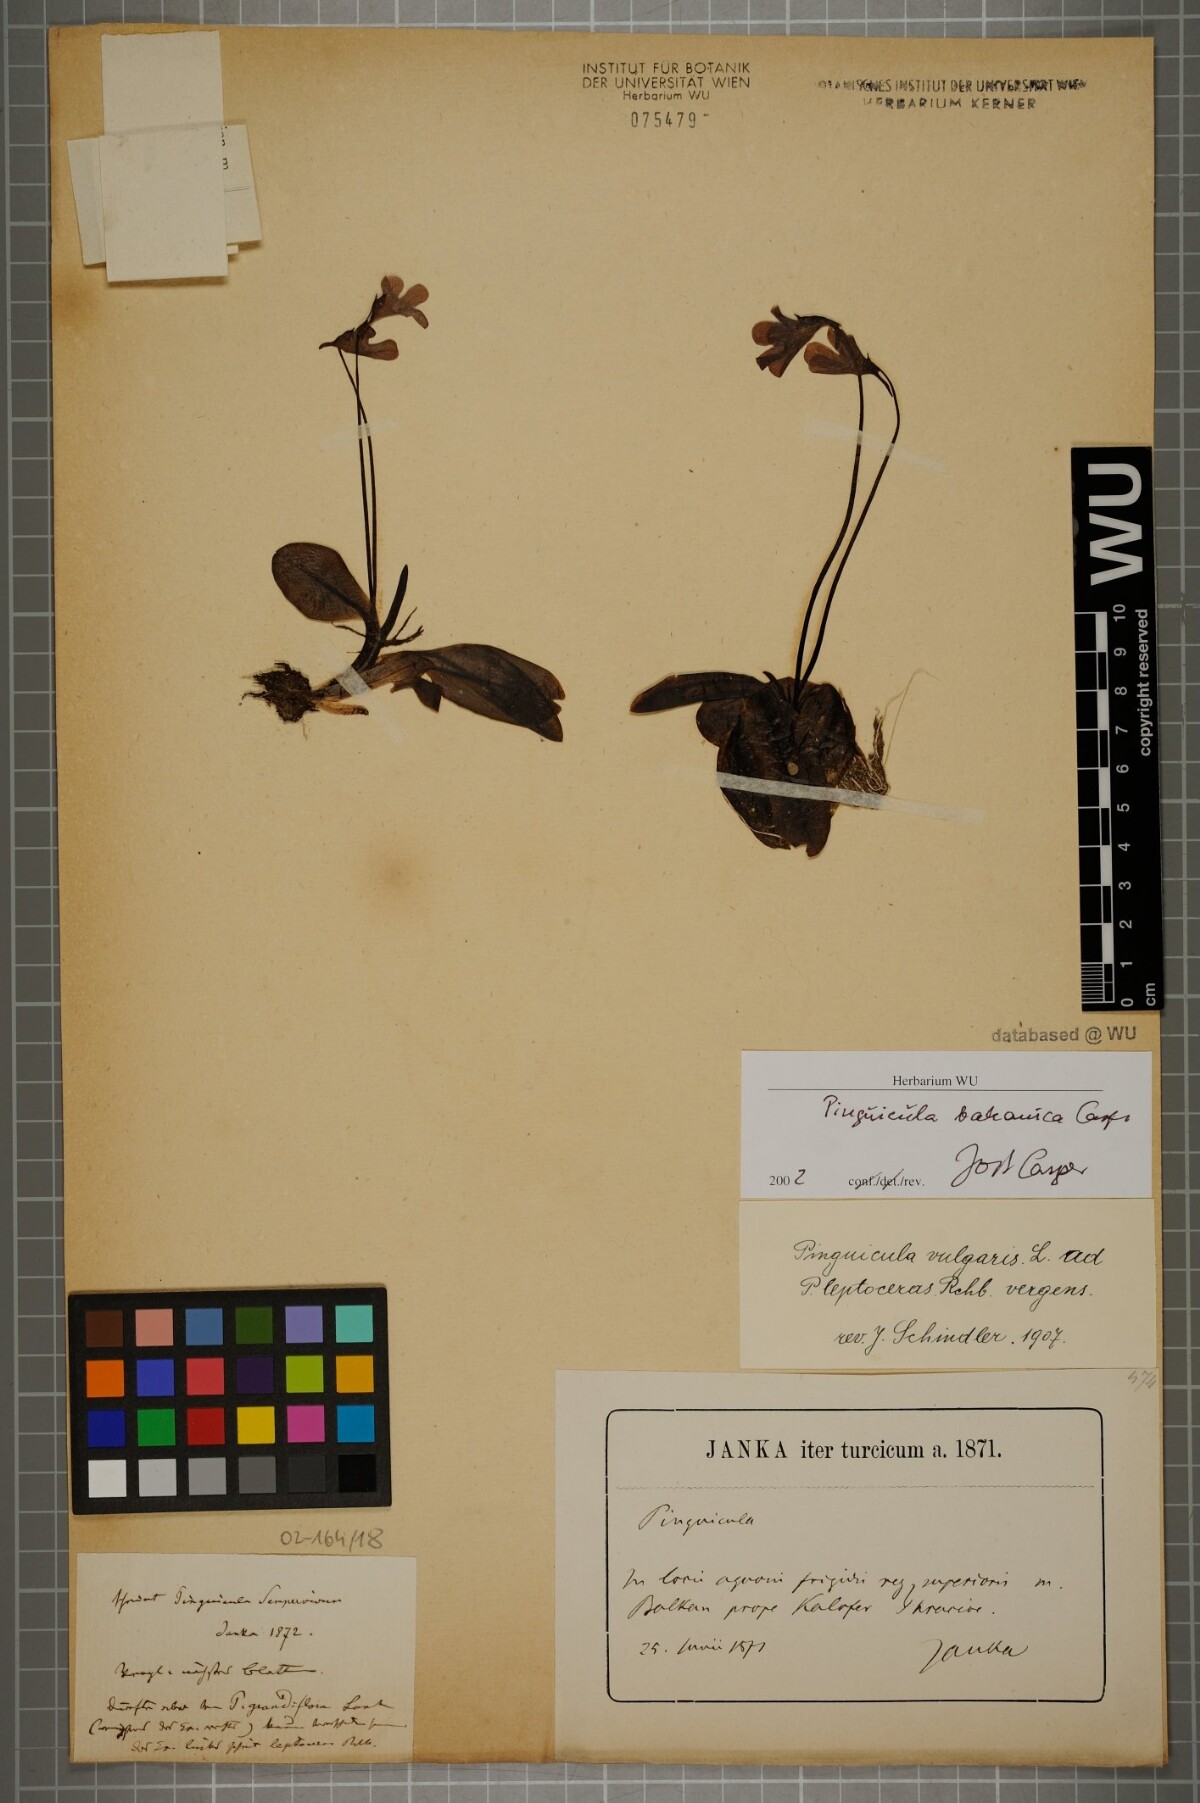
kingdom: Plantae
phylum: Tracheophyta
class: Magnoliopsida
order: Lamiales
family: Lentibulariaceae
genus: Pinguicula
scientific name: Pinguicula balcanica
